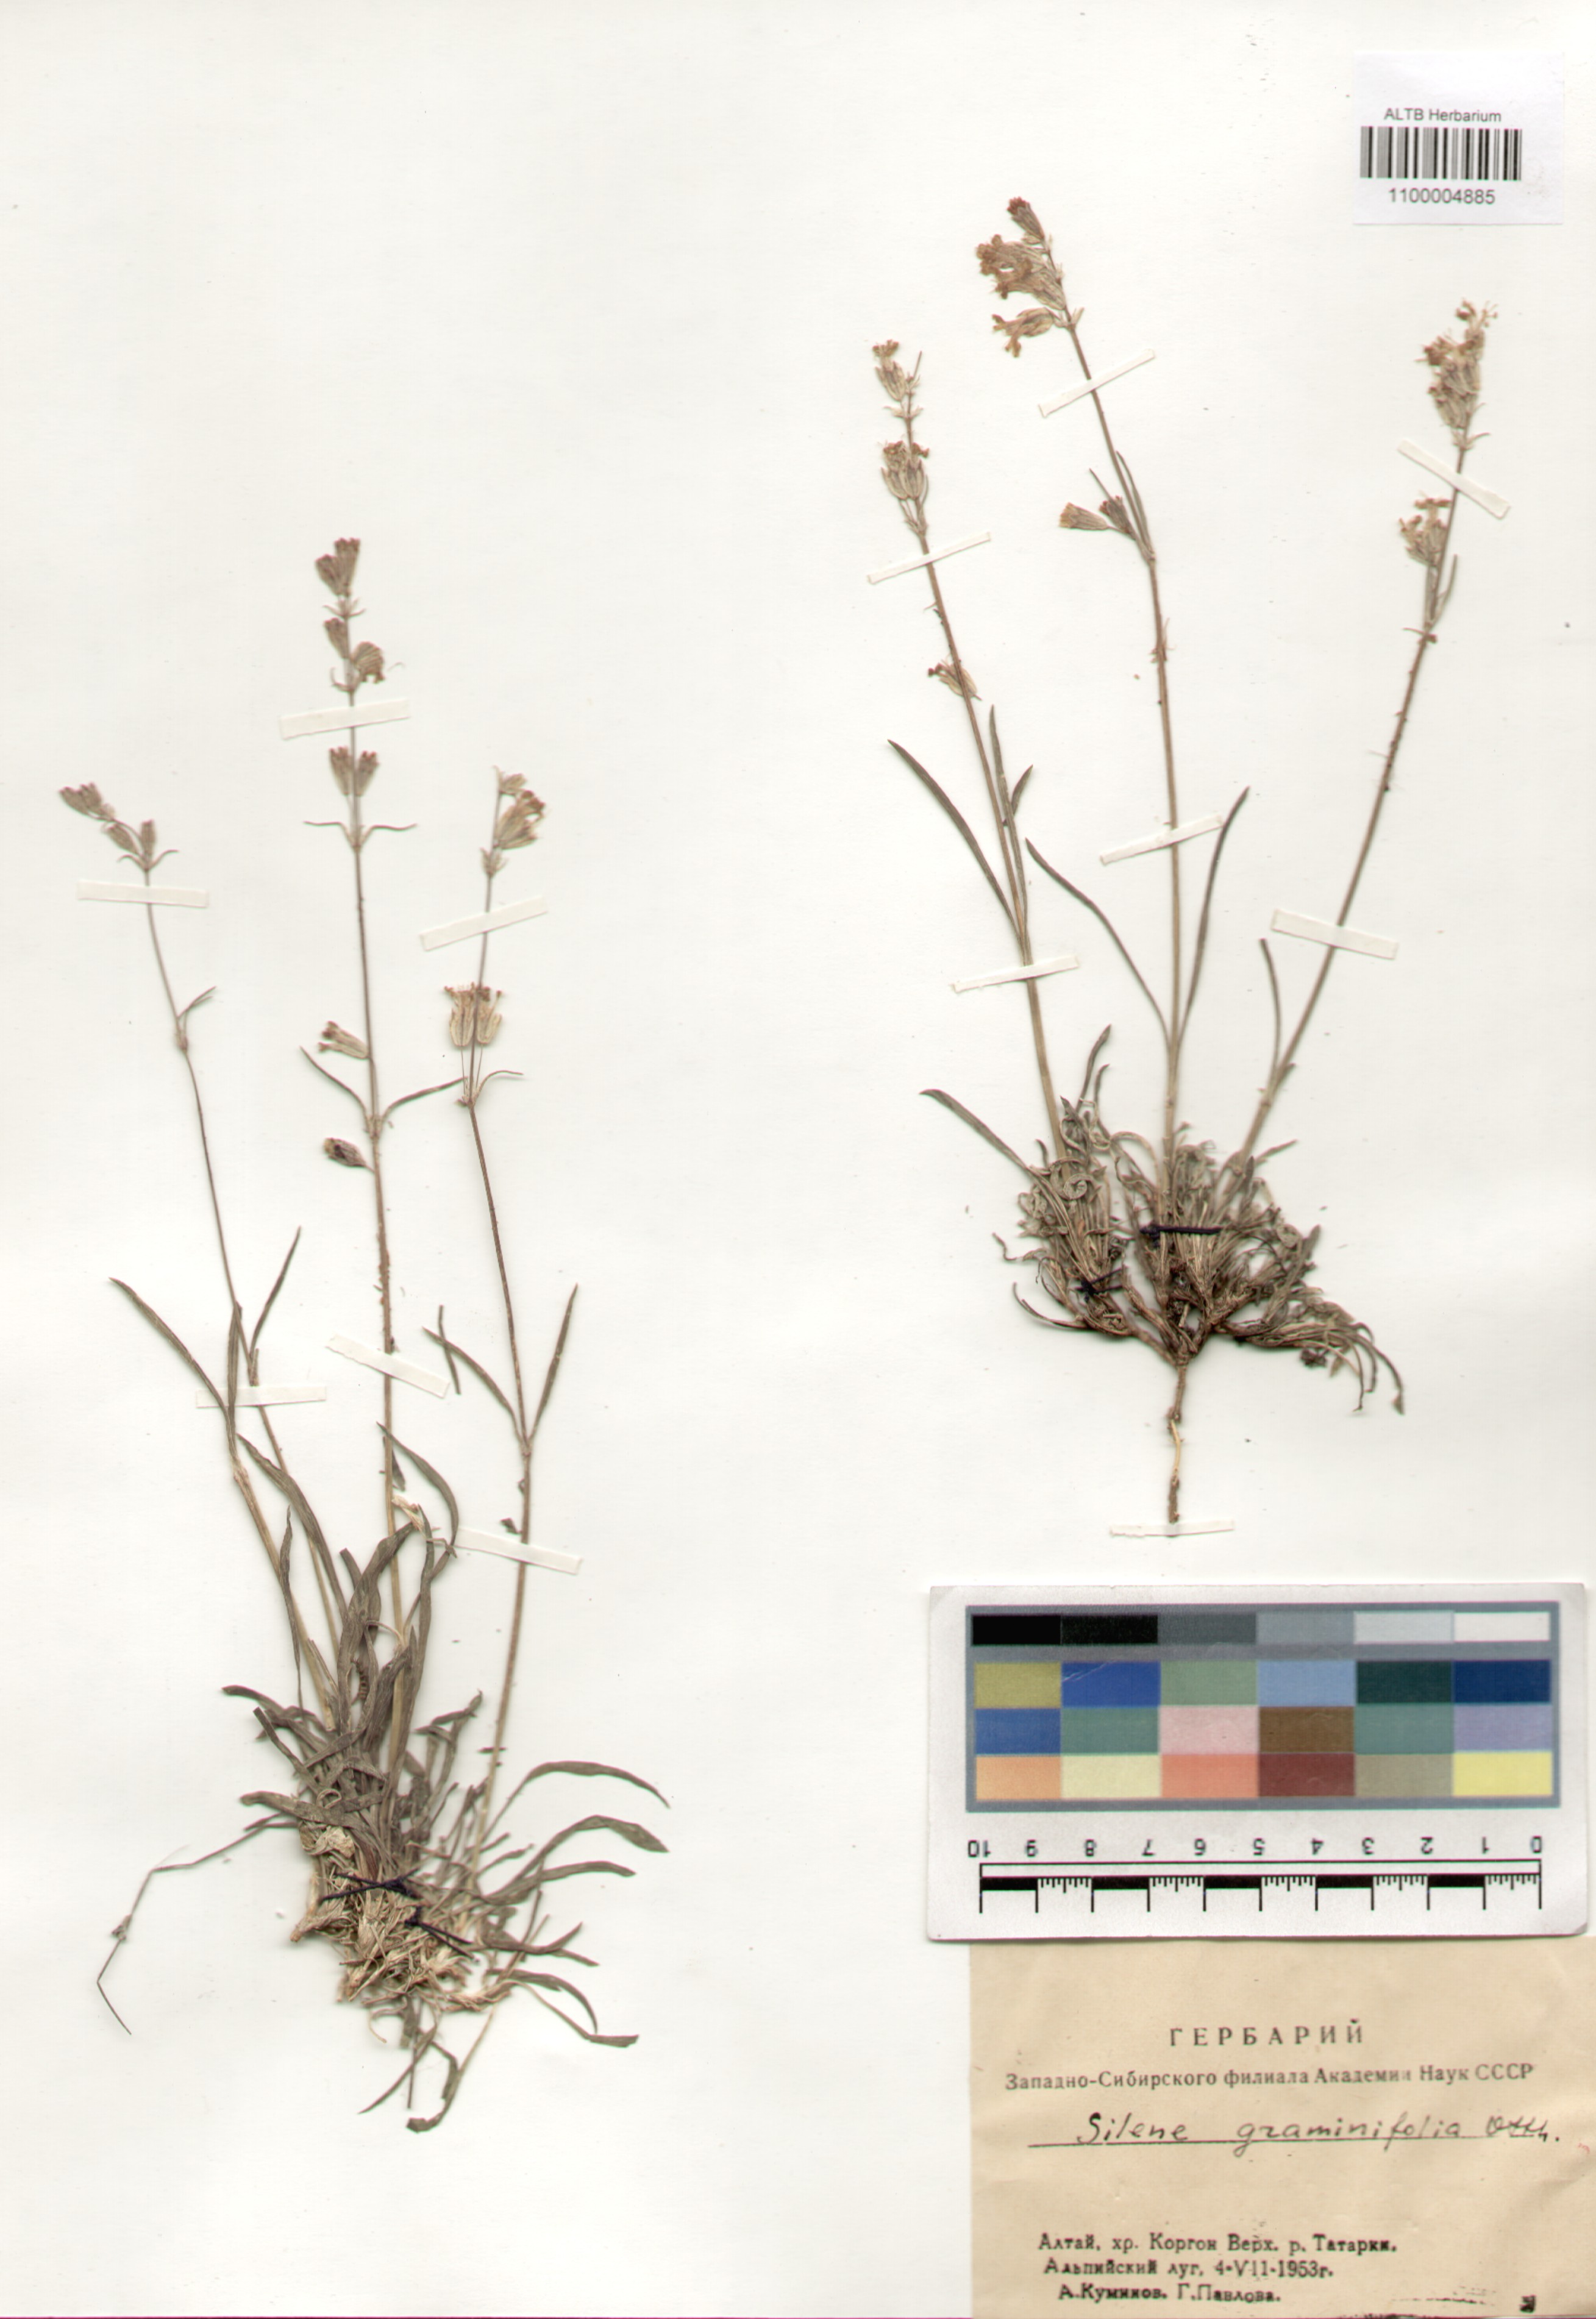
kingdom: Plantae
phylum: Tracheophyta
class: Magnoliopsida
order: Caryophyllales
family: Caryophyllaceae
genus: Silene
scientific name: Silene graminifolia
